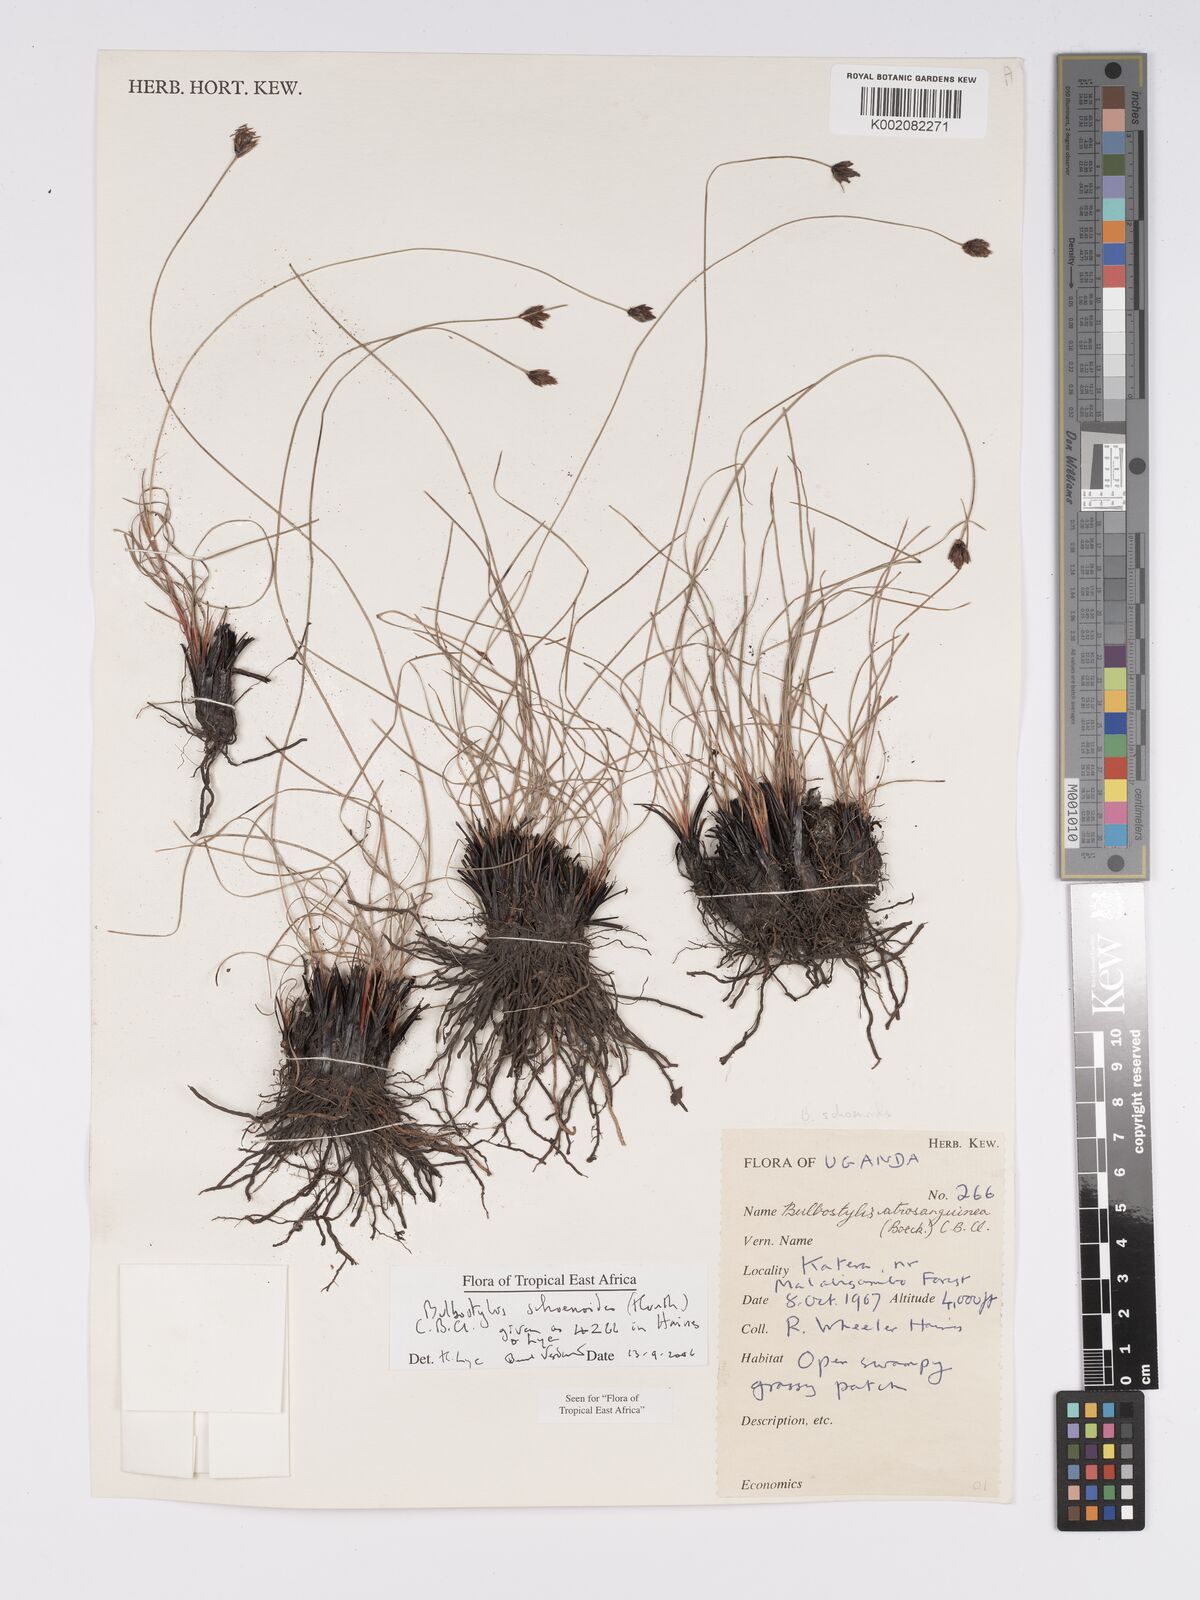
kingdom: Plantae
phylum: Tracheophyta
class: Liliopsida
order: Poales
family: Cyperaceae
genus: Bulbostylis
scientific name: Bulbostylis schoenoides
